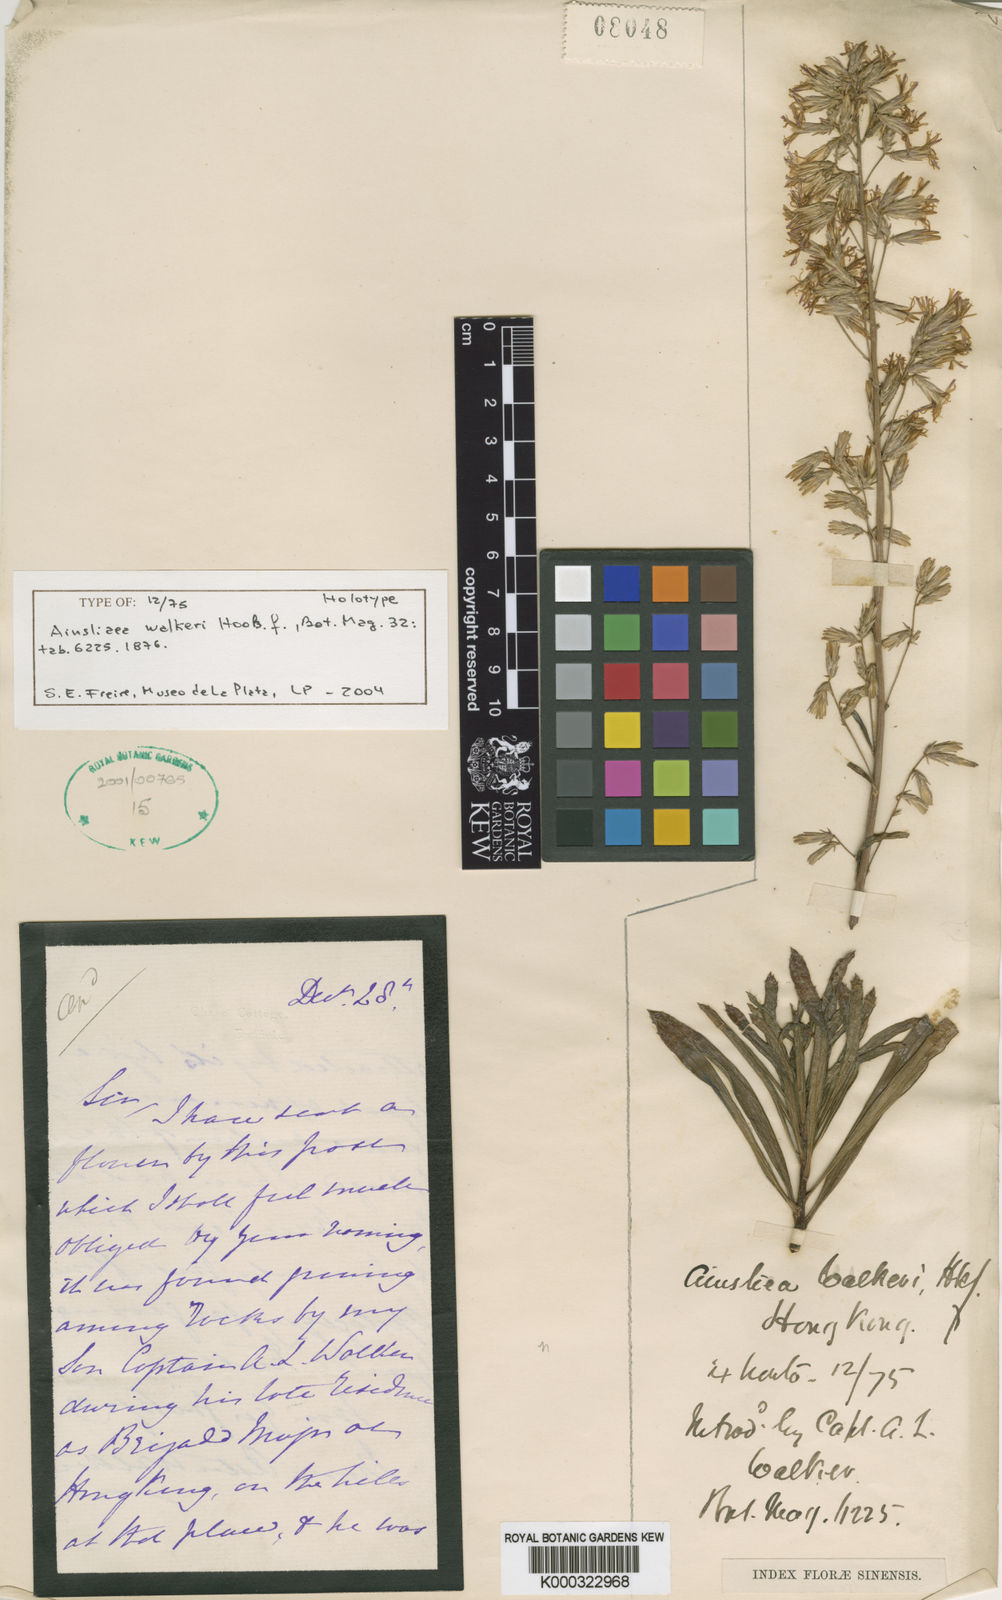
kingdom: Plantae
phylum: Tracheophyta
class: Magnoliopsida
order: Asterales
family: Asteraceae
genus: Ainsliaea
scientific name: Ainsliaea walkeri
